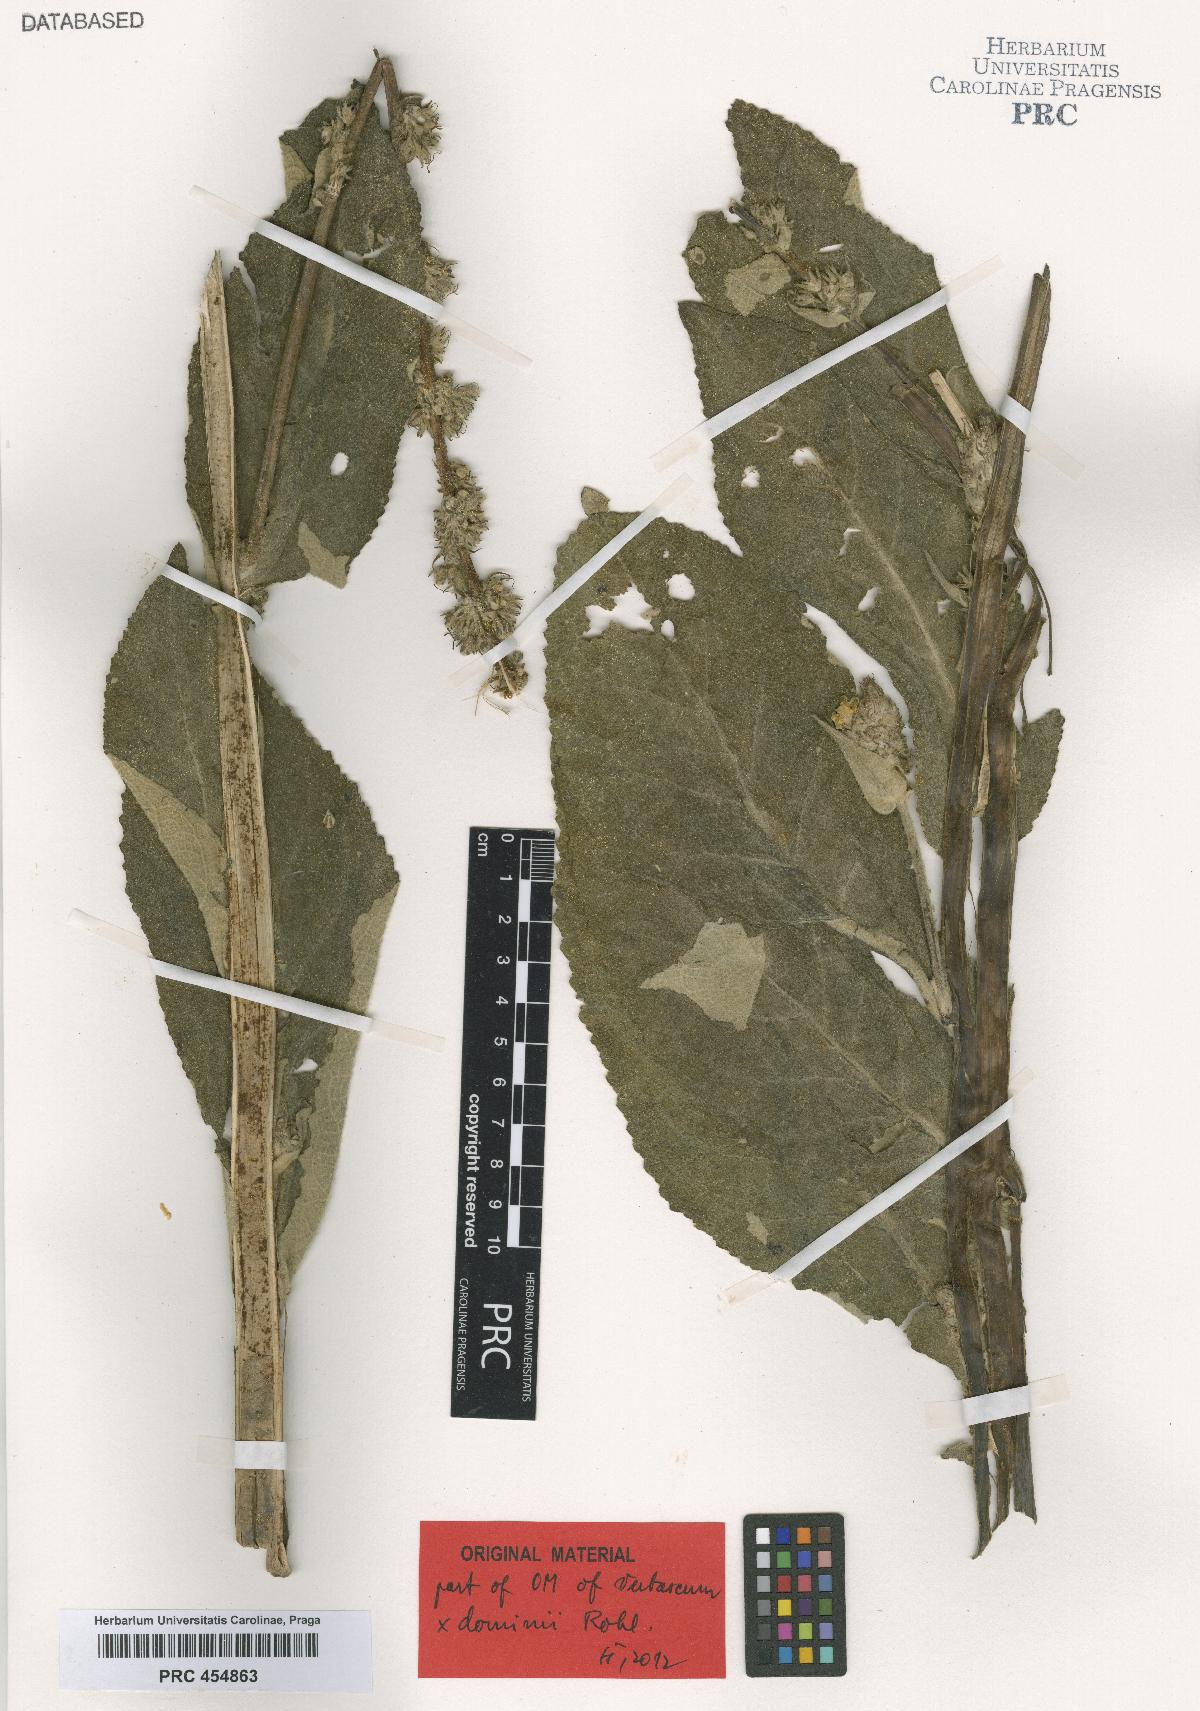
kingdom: Plantae
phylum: Tracheophyta
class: Magnoliopsida
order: Lamiales
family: Scrophulariaceae
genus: Verbascum
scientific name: Verbascum dominii
